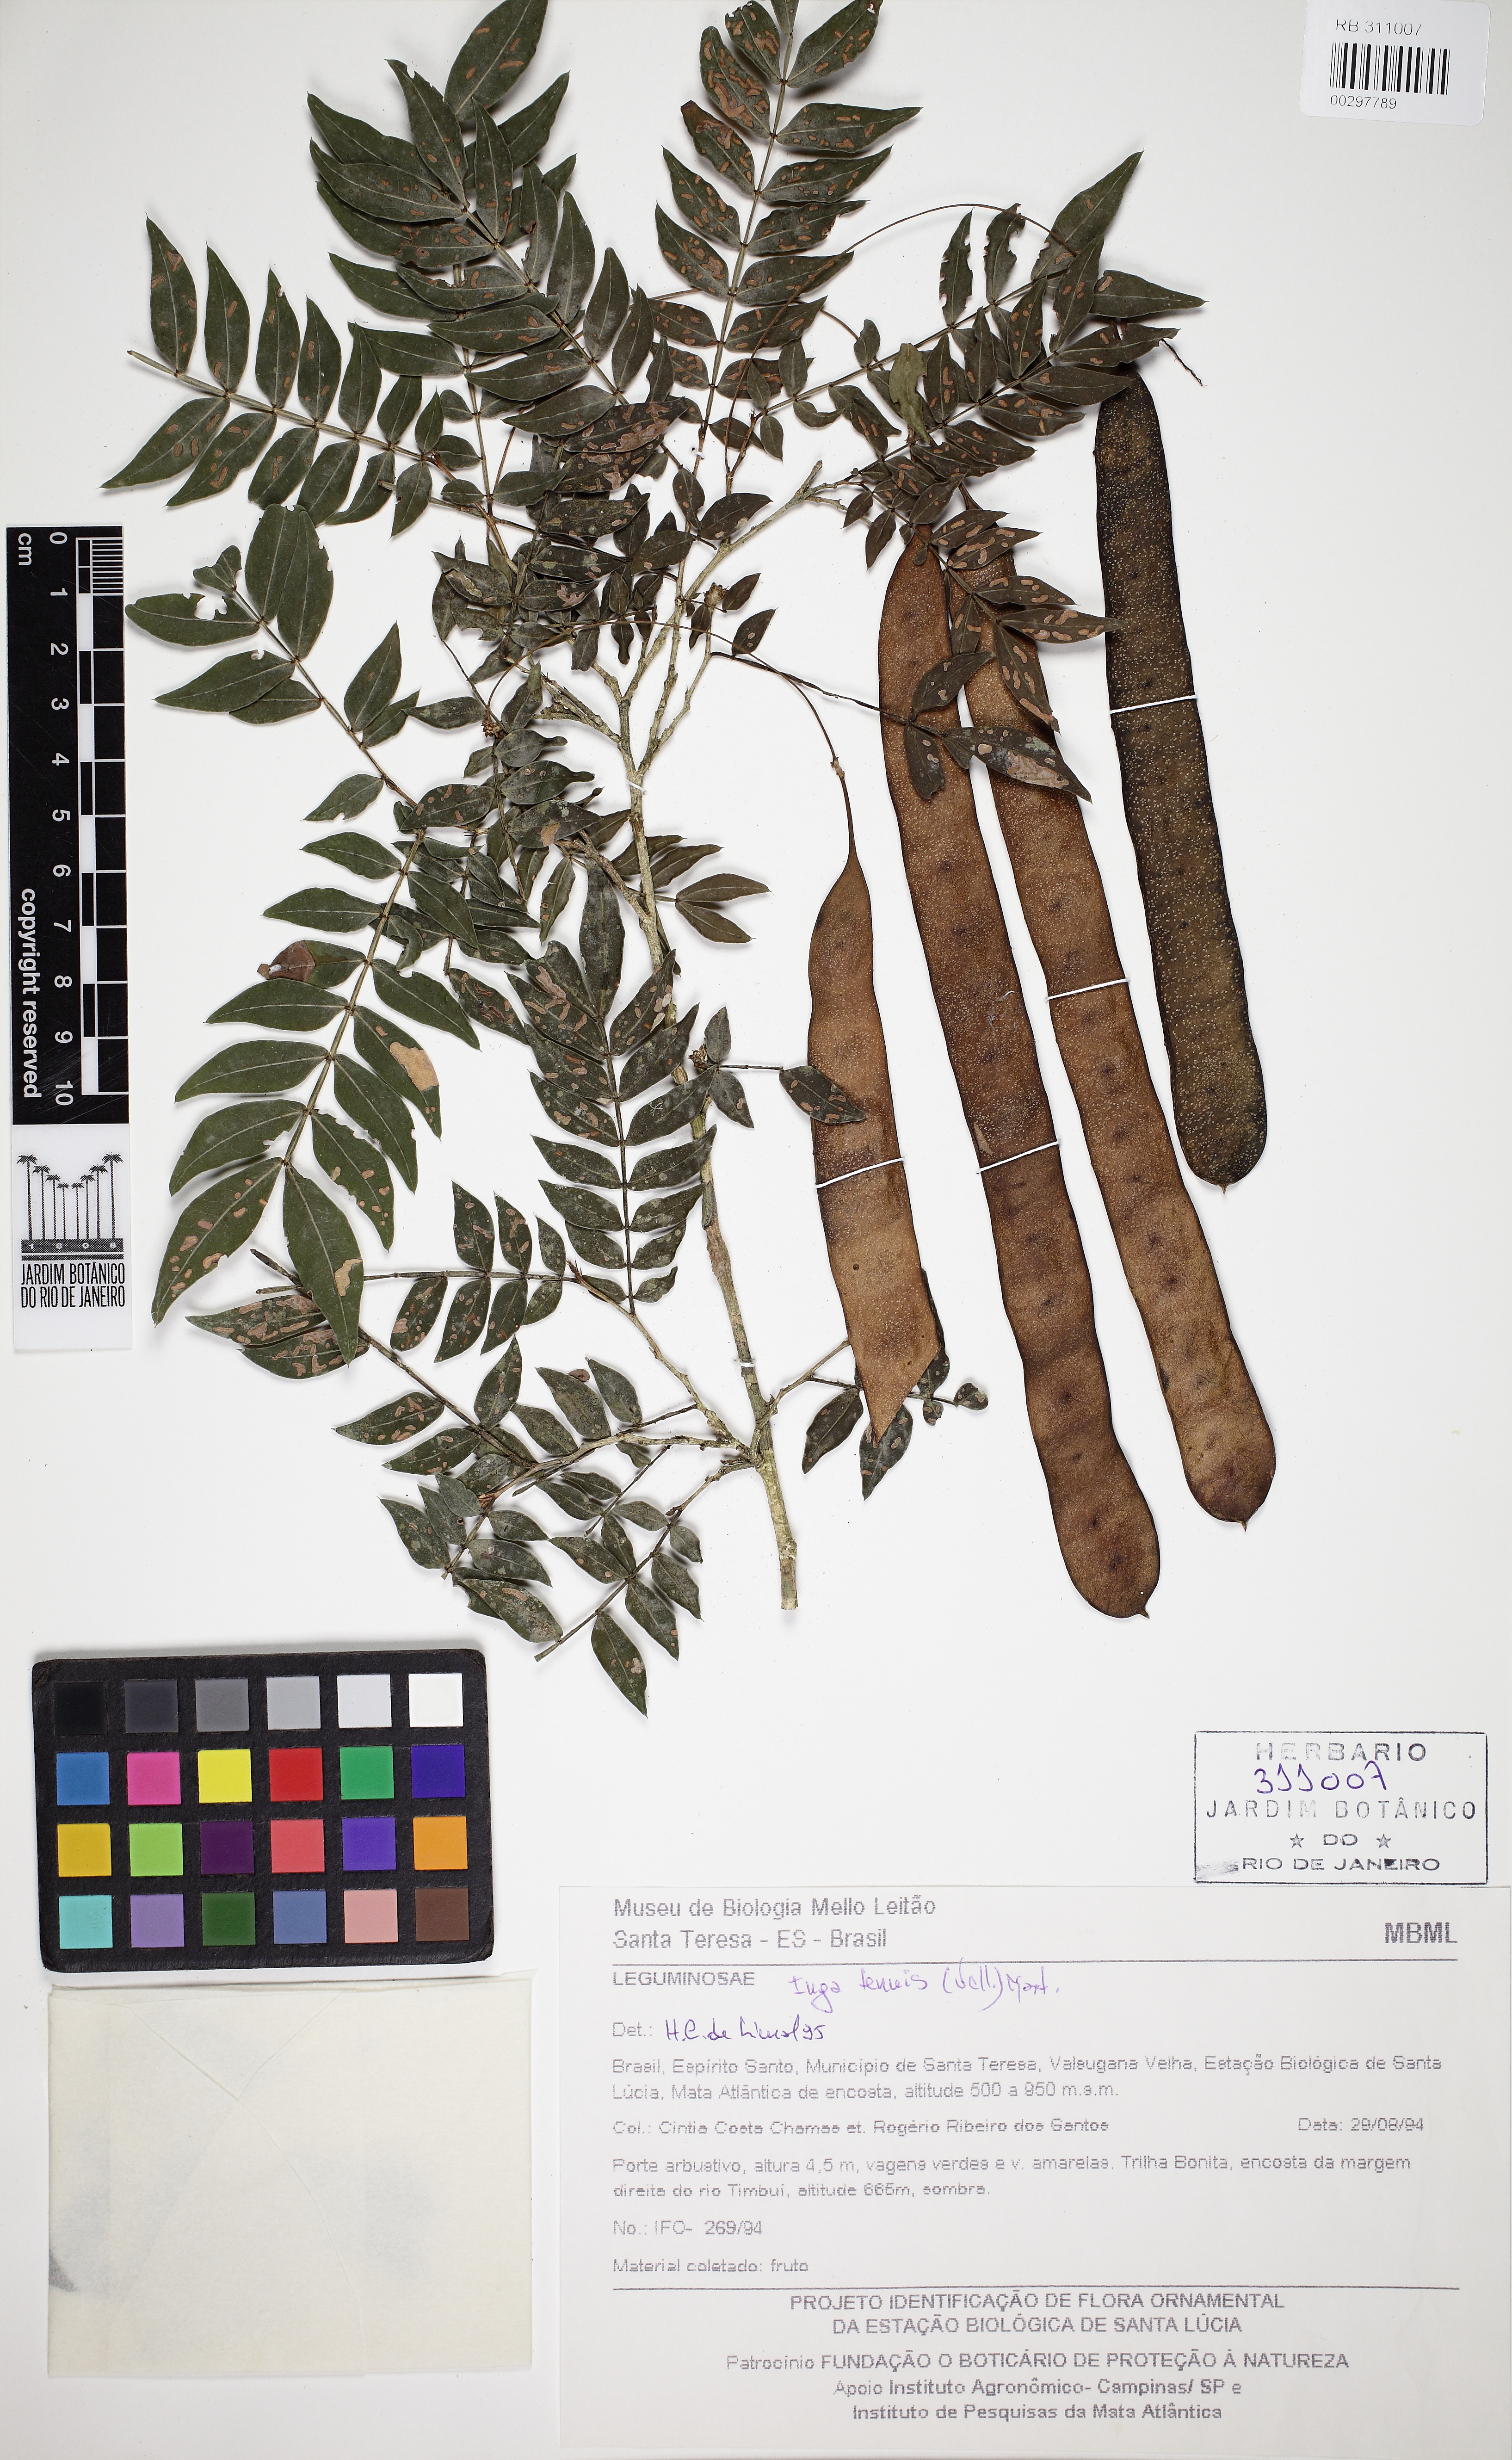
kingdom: Plantae
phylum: Tracheophyta
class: Magnoliopsida
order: Fabales
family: Fabaceae
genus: Inga
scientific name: Inga tenuis
